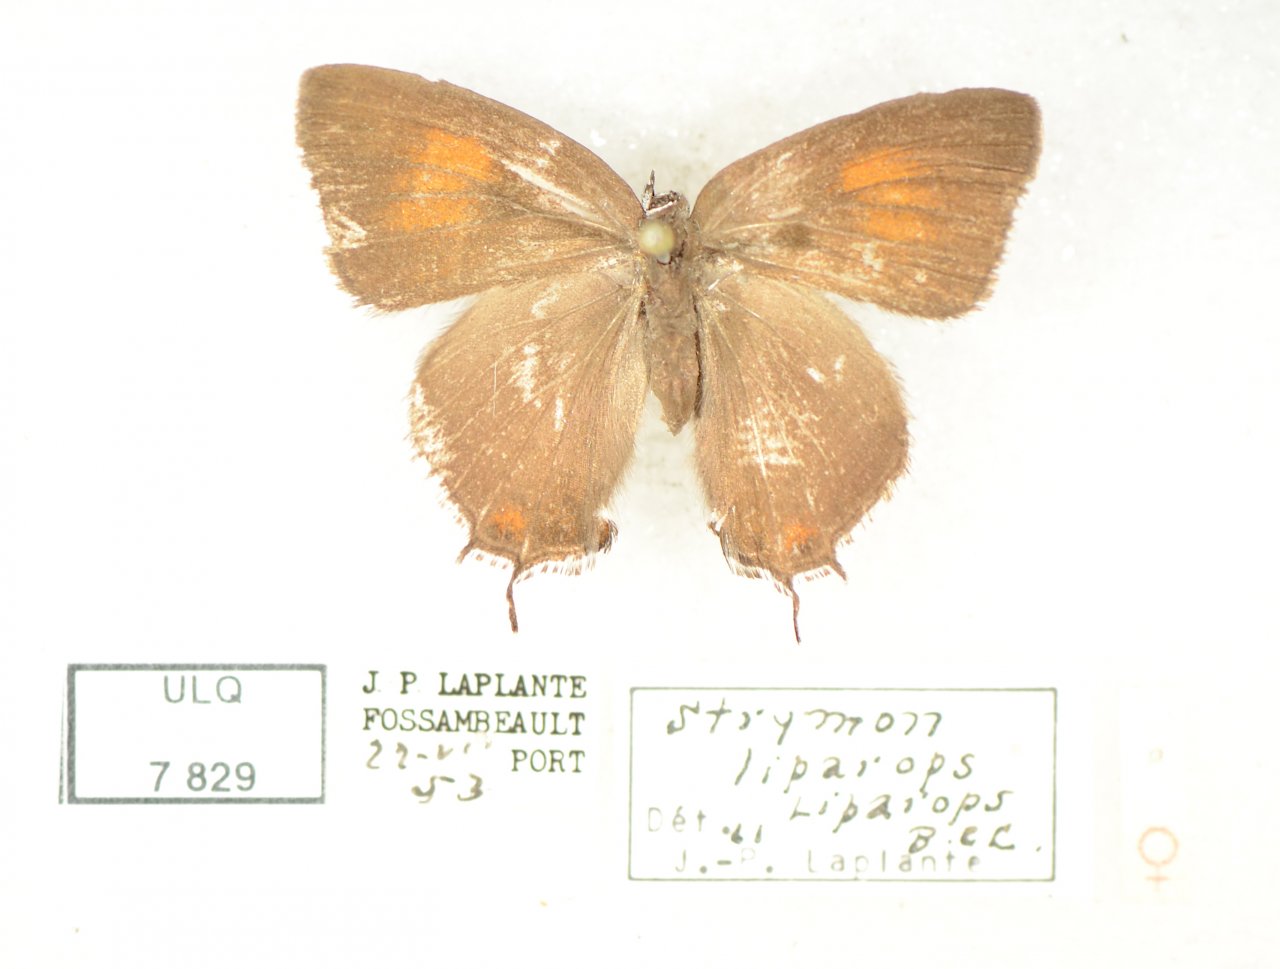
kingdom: Animalia
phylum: Arthropoda
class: Insecta
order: Lepidoptera
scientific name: Lepidoptera
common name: Butterflies
